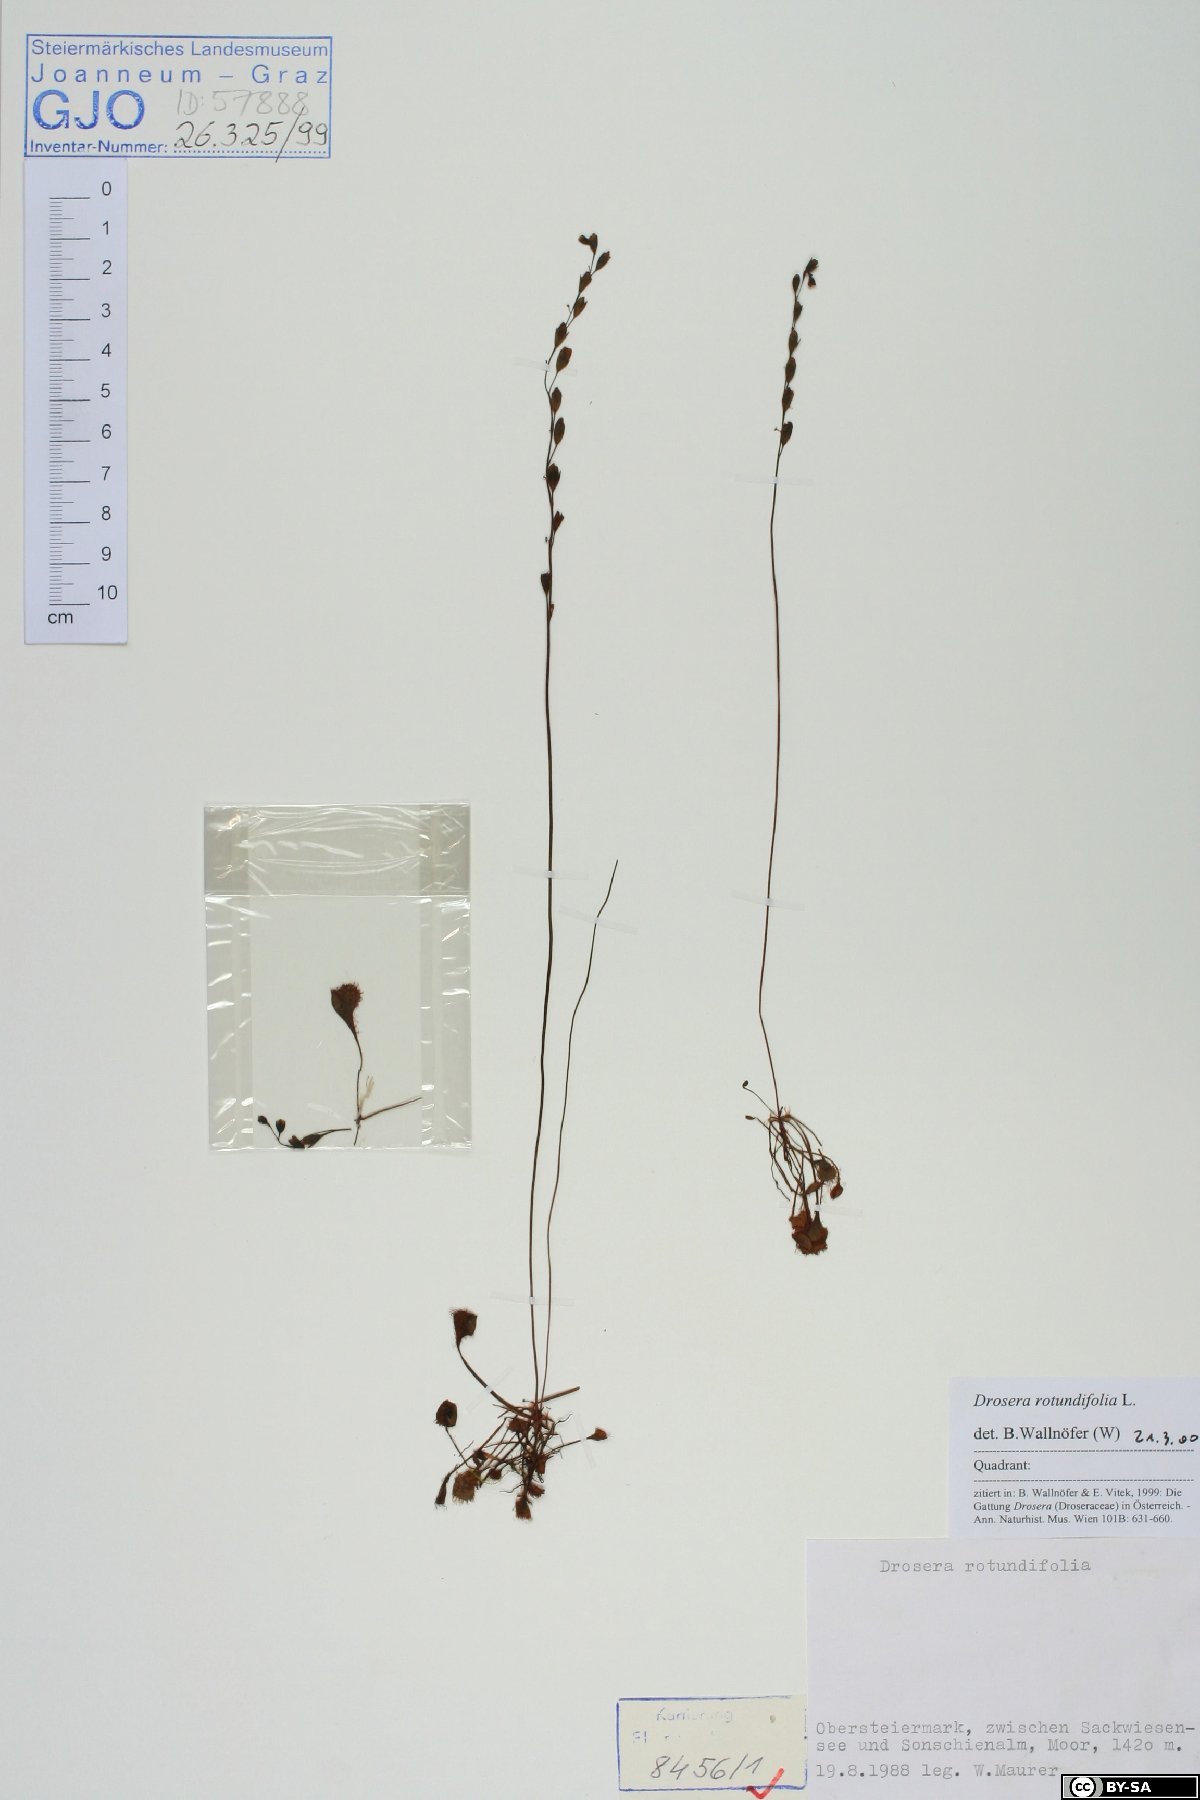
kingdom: Plantae
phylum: Tracheophyta
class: Magnoliopsida
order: Caryophyllales
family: Droseraceae
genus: Drosera
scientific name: Drosera rotundifolia
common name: Round-leaved sundew
